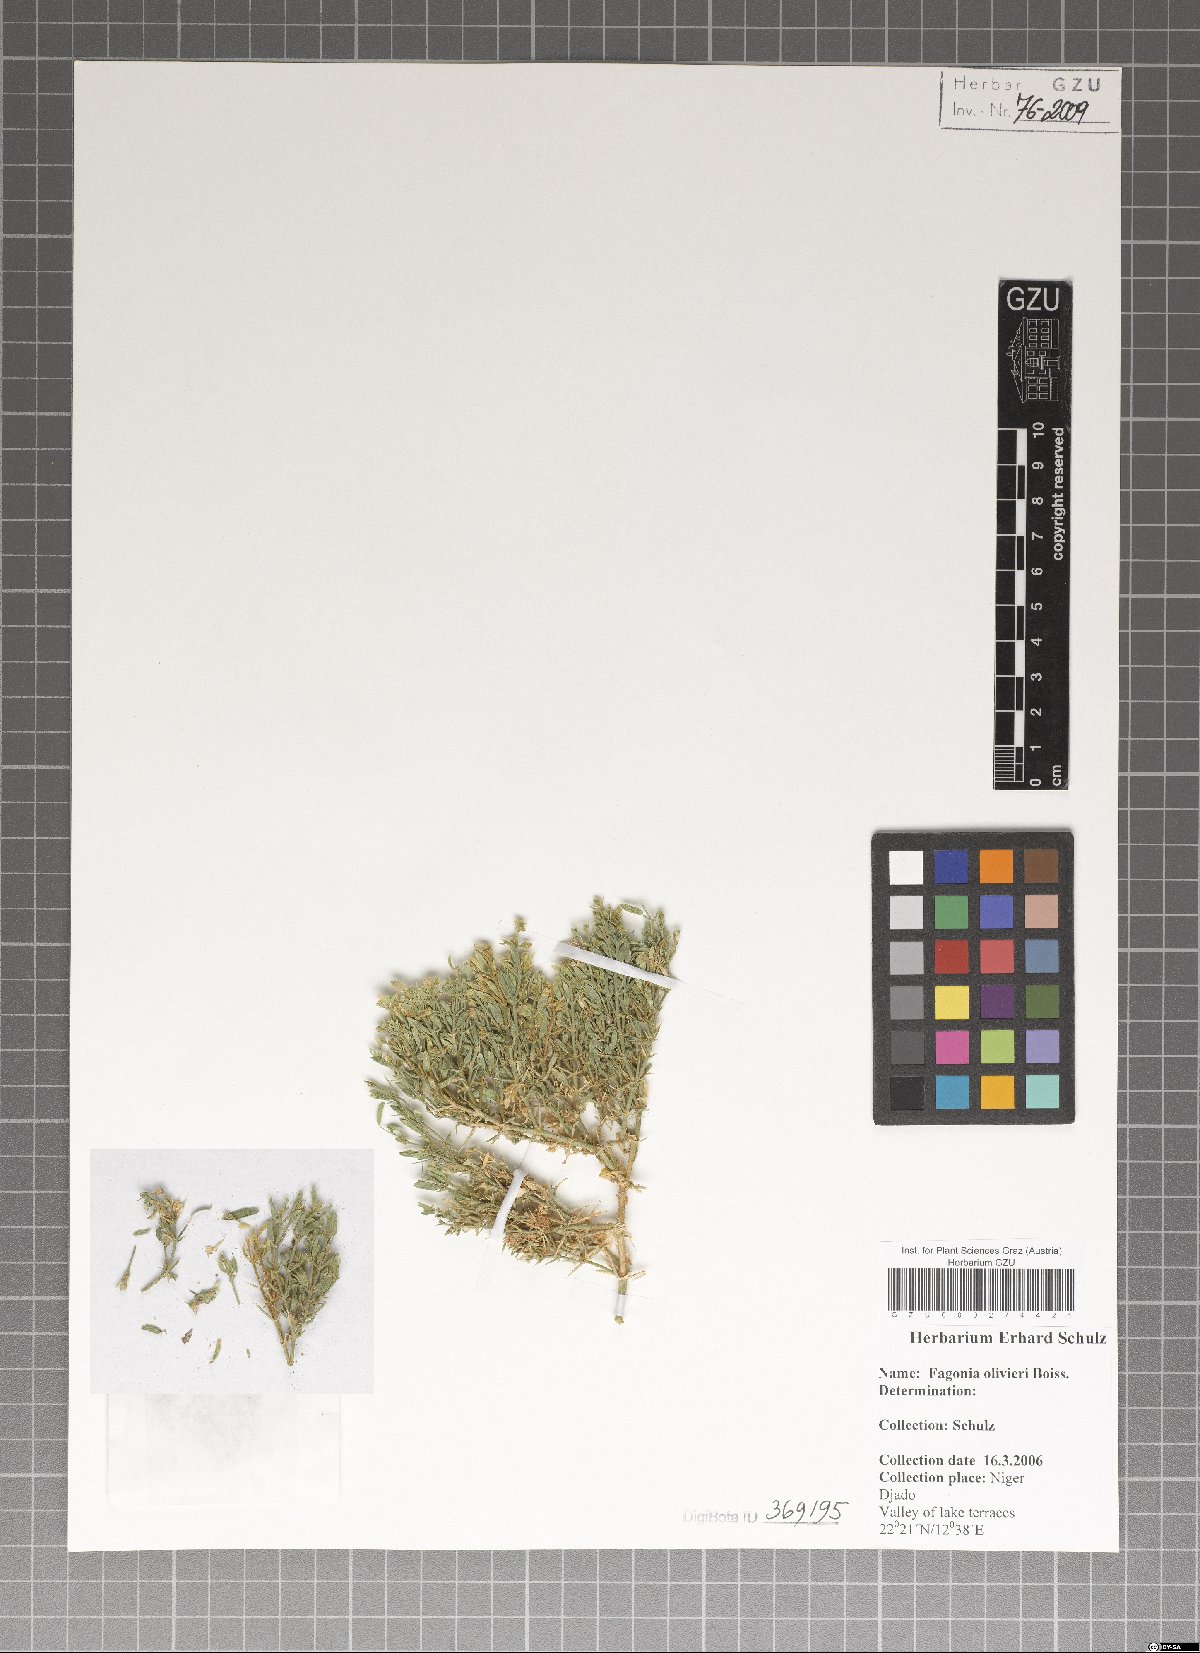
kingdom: Plantae
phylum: Tracheophyta
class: Magnoliopsida
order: Zygophyllales
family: Zygophyllaceae
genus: Fagonia
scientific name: Fagonia olivieri
